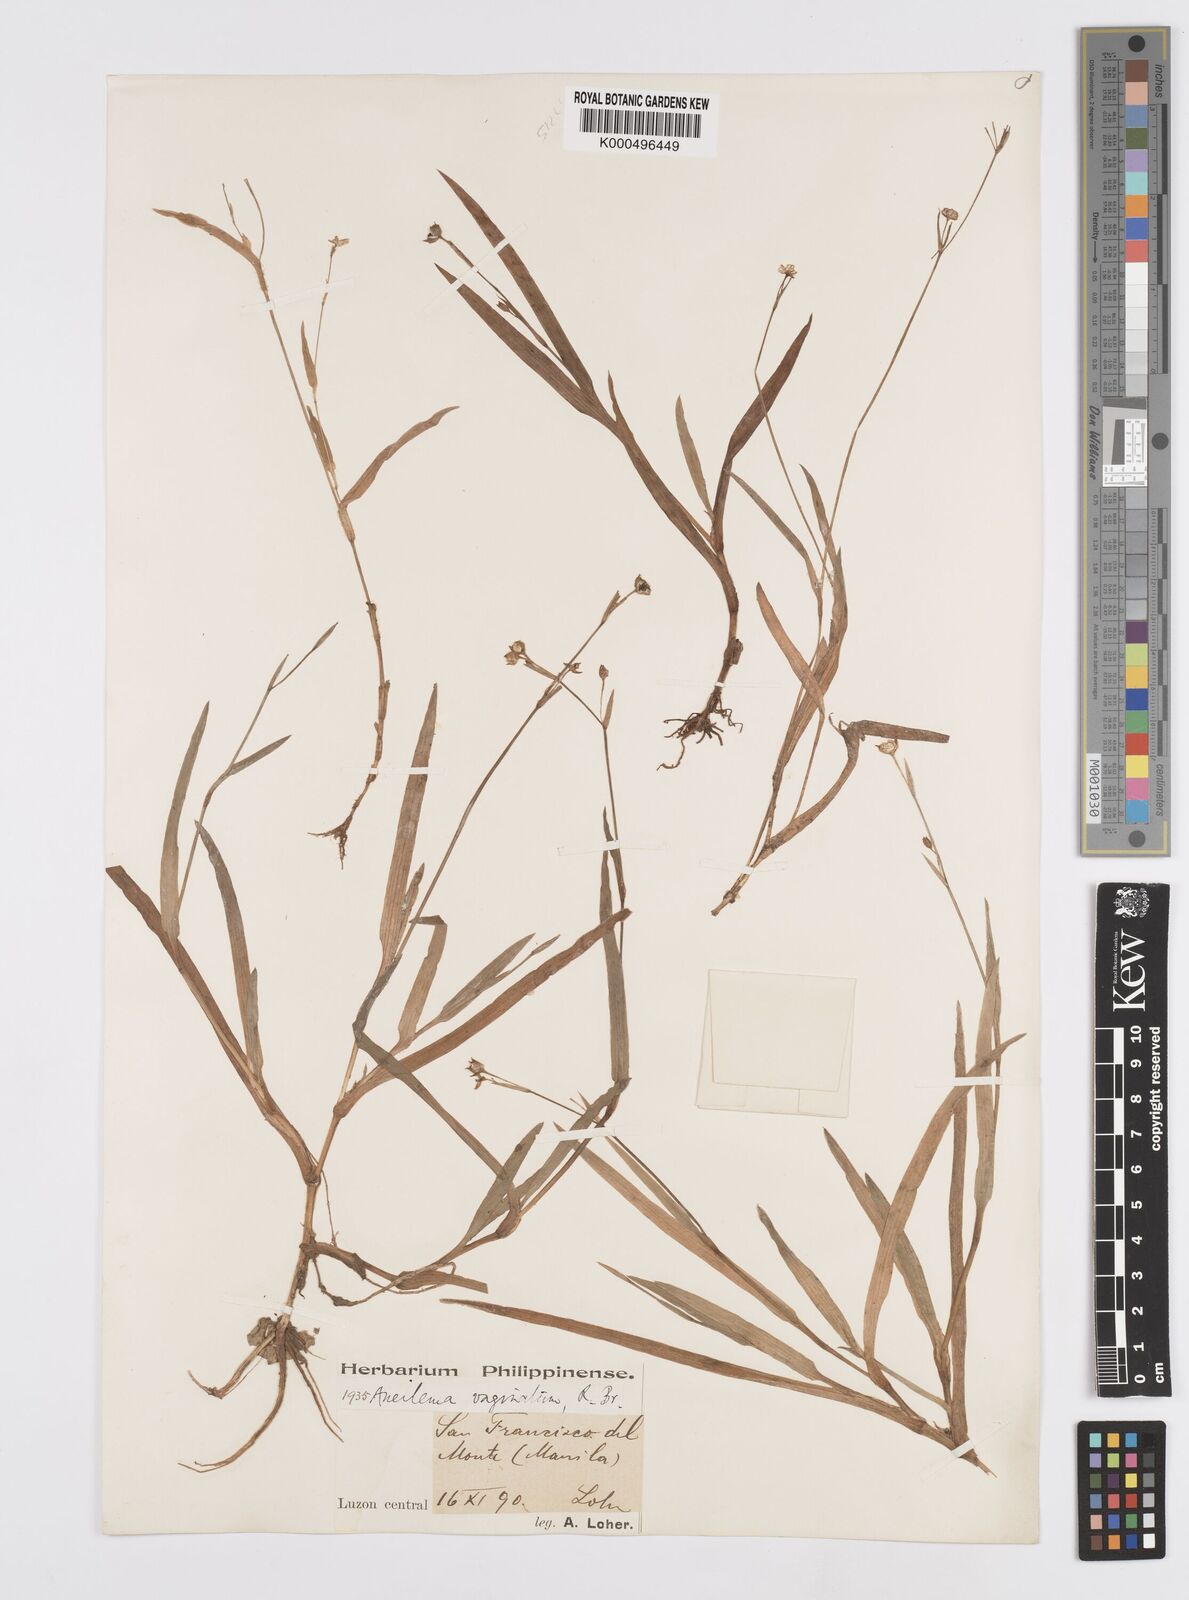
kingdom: Plantae
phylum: Tracheophyta
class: Liliopsida
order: Commelinales
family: Commelinaceae
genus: Murdannia
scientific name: Murdannia
